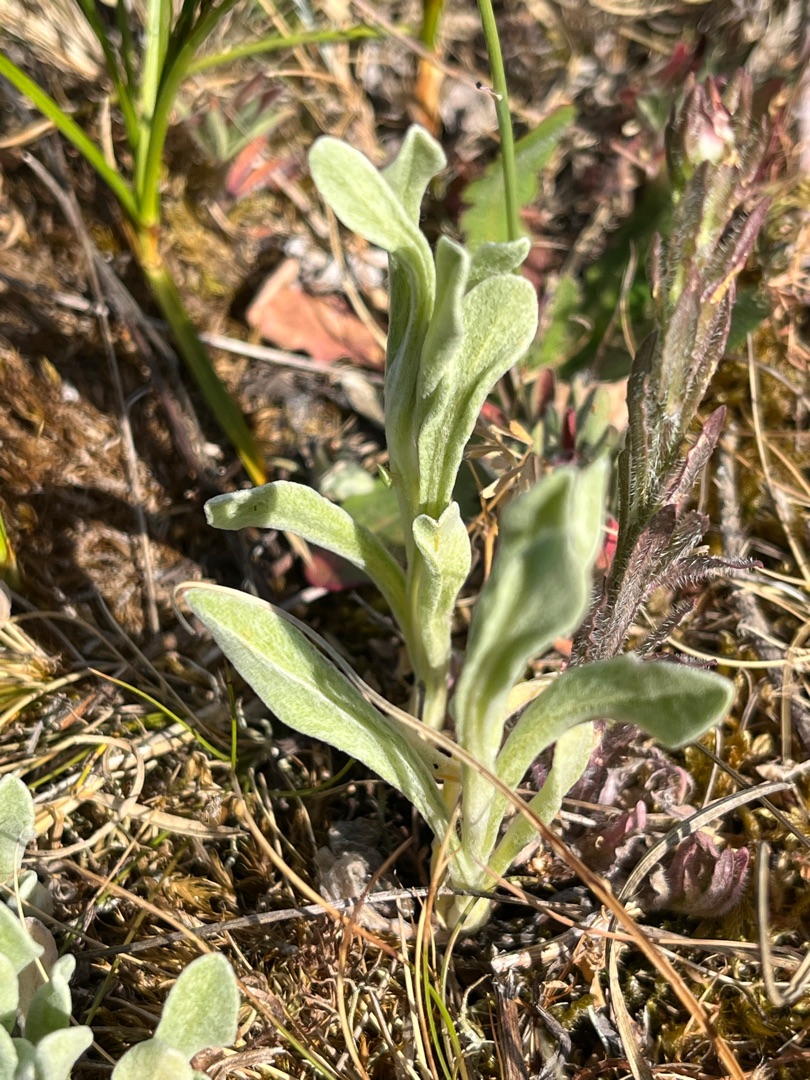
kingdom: Plantae
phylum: Tracheophyta
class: Magnoliopsida
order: Asterales
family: Asteraceae
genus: Helichrysum
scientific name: Helichrysum arenarium
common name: Gul evighedsblomst
